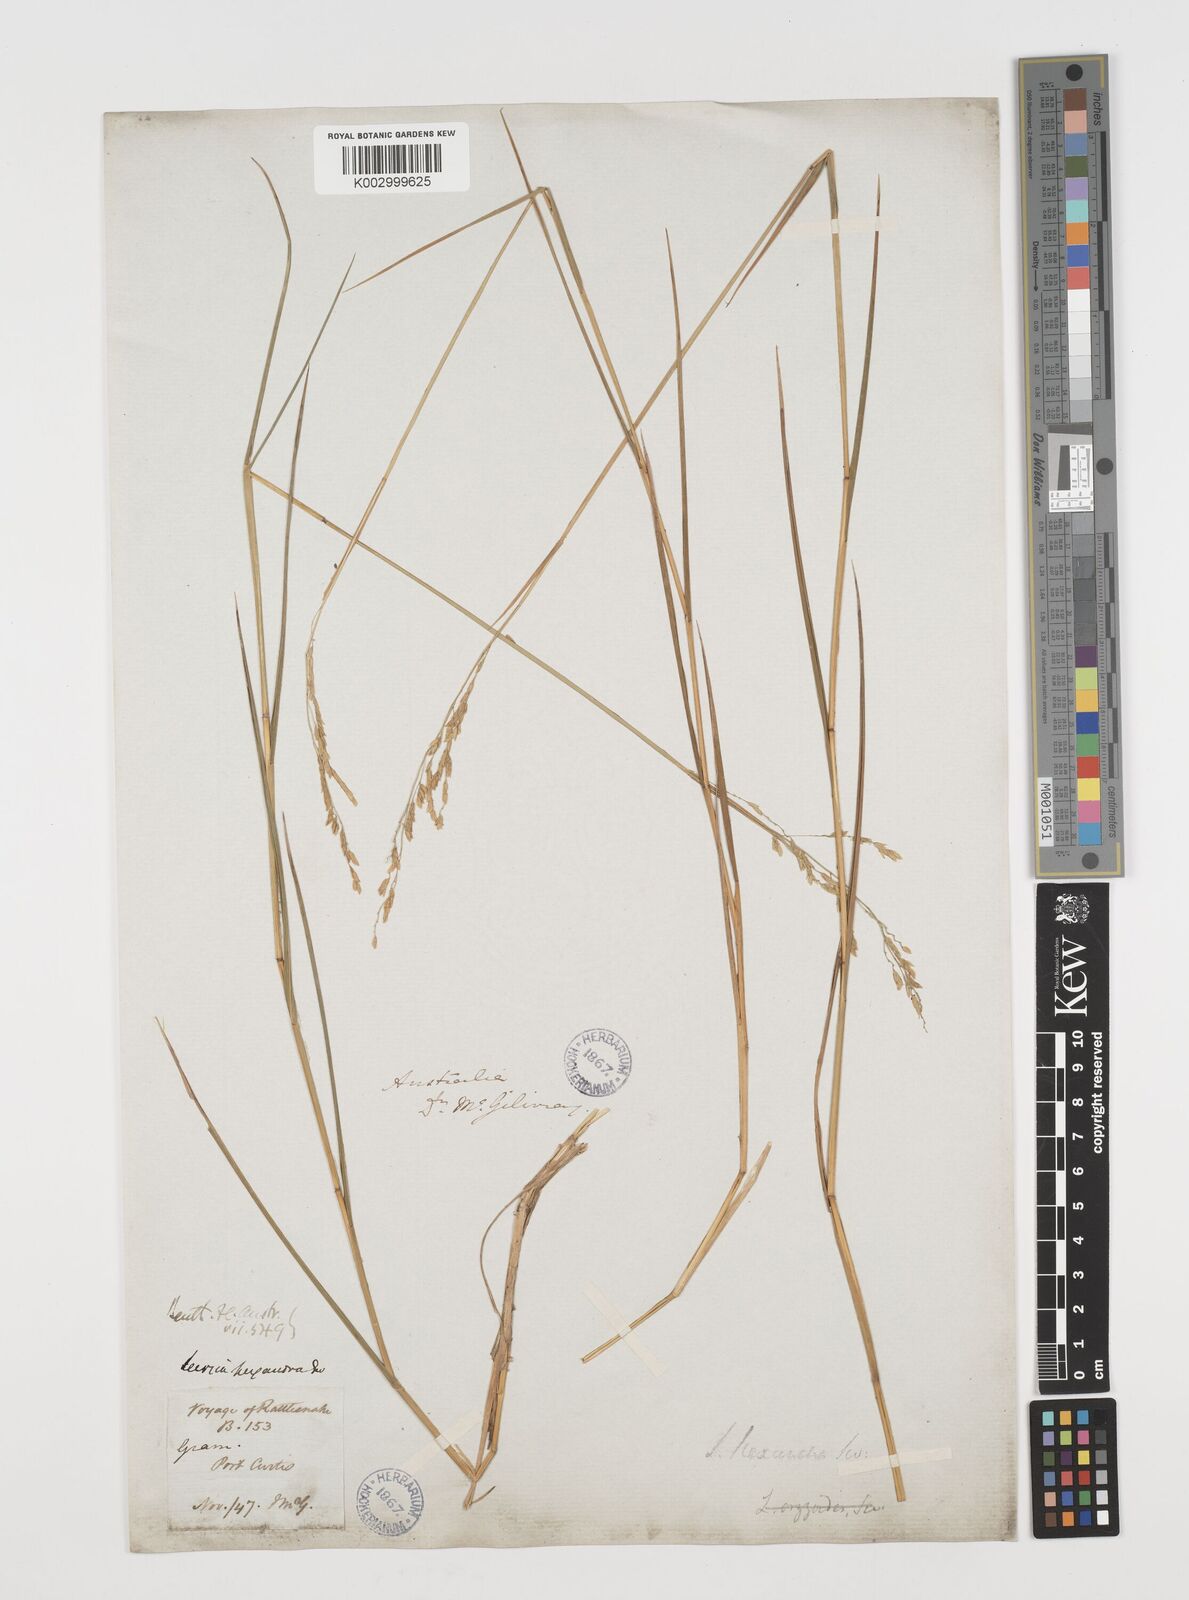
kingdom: Plantae
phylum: Tracheophyta
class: Liliopsida
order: Poales
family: Poaceae
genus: Leersia
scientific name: Leersia hexandra
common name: Southern cut grass
